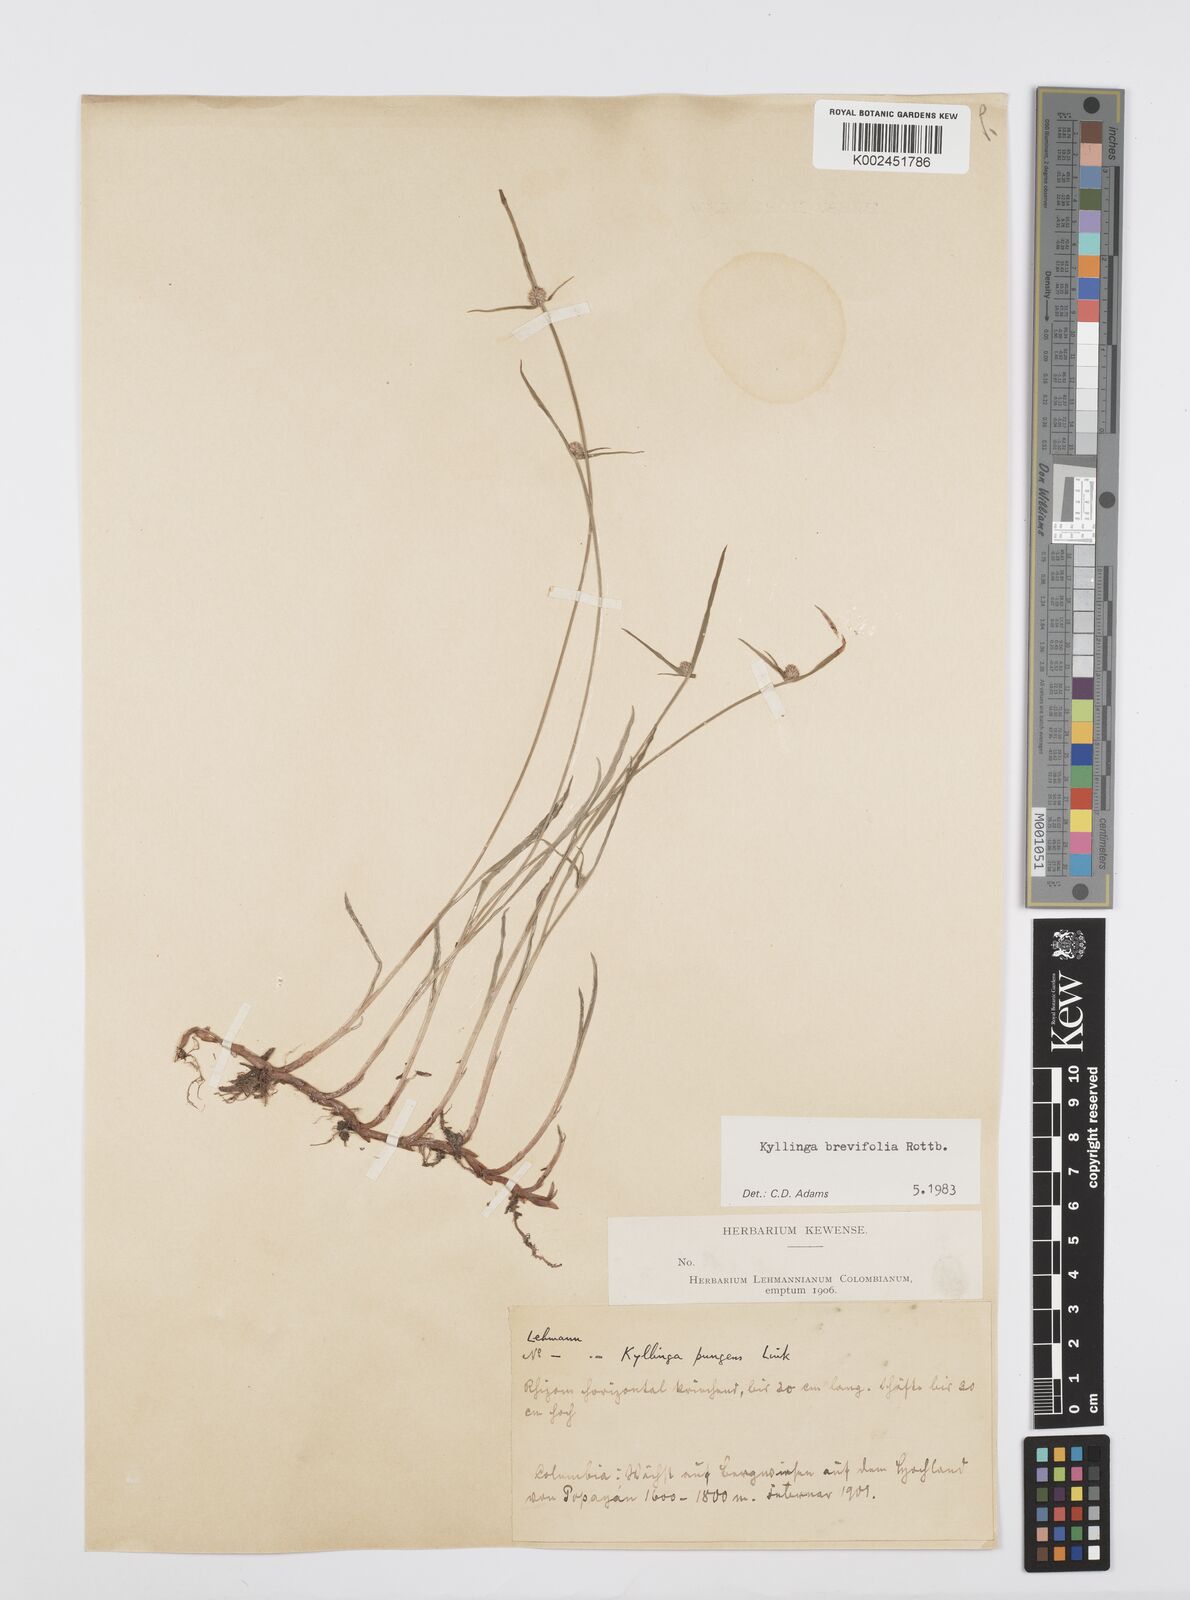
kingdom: Plantae
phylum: Tracheophyta
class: Liliopsida
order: Poales
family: Cyperaceae
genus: Cyperus
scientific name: Cyperus brevifolius
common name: Globe kyllinga
